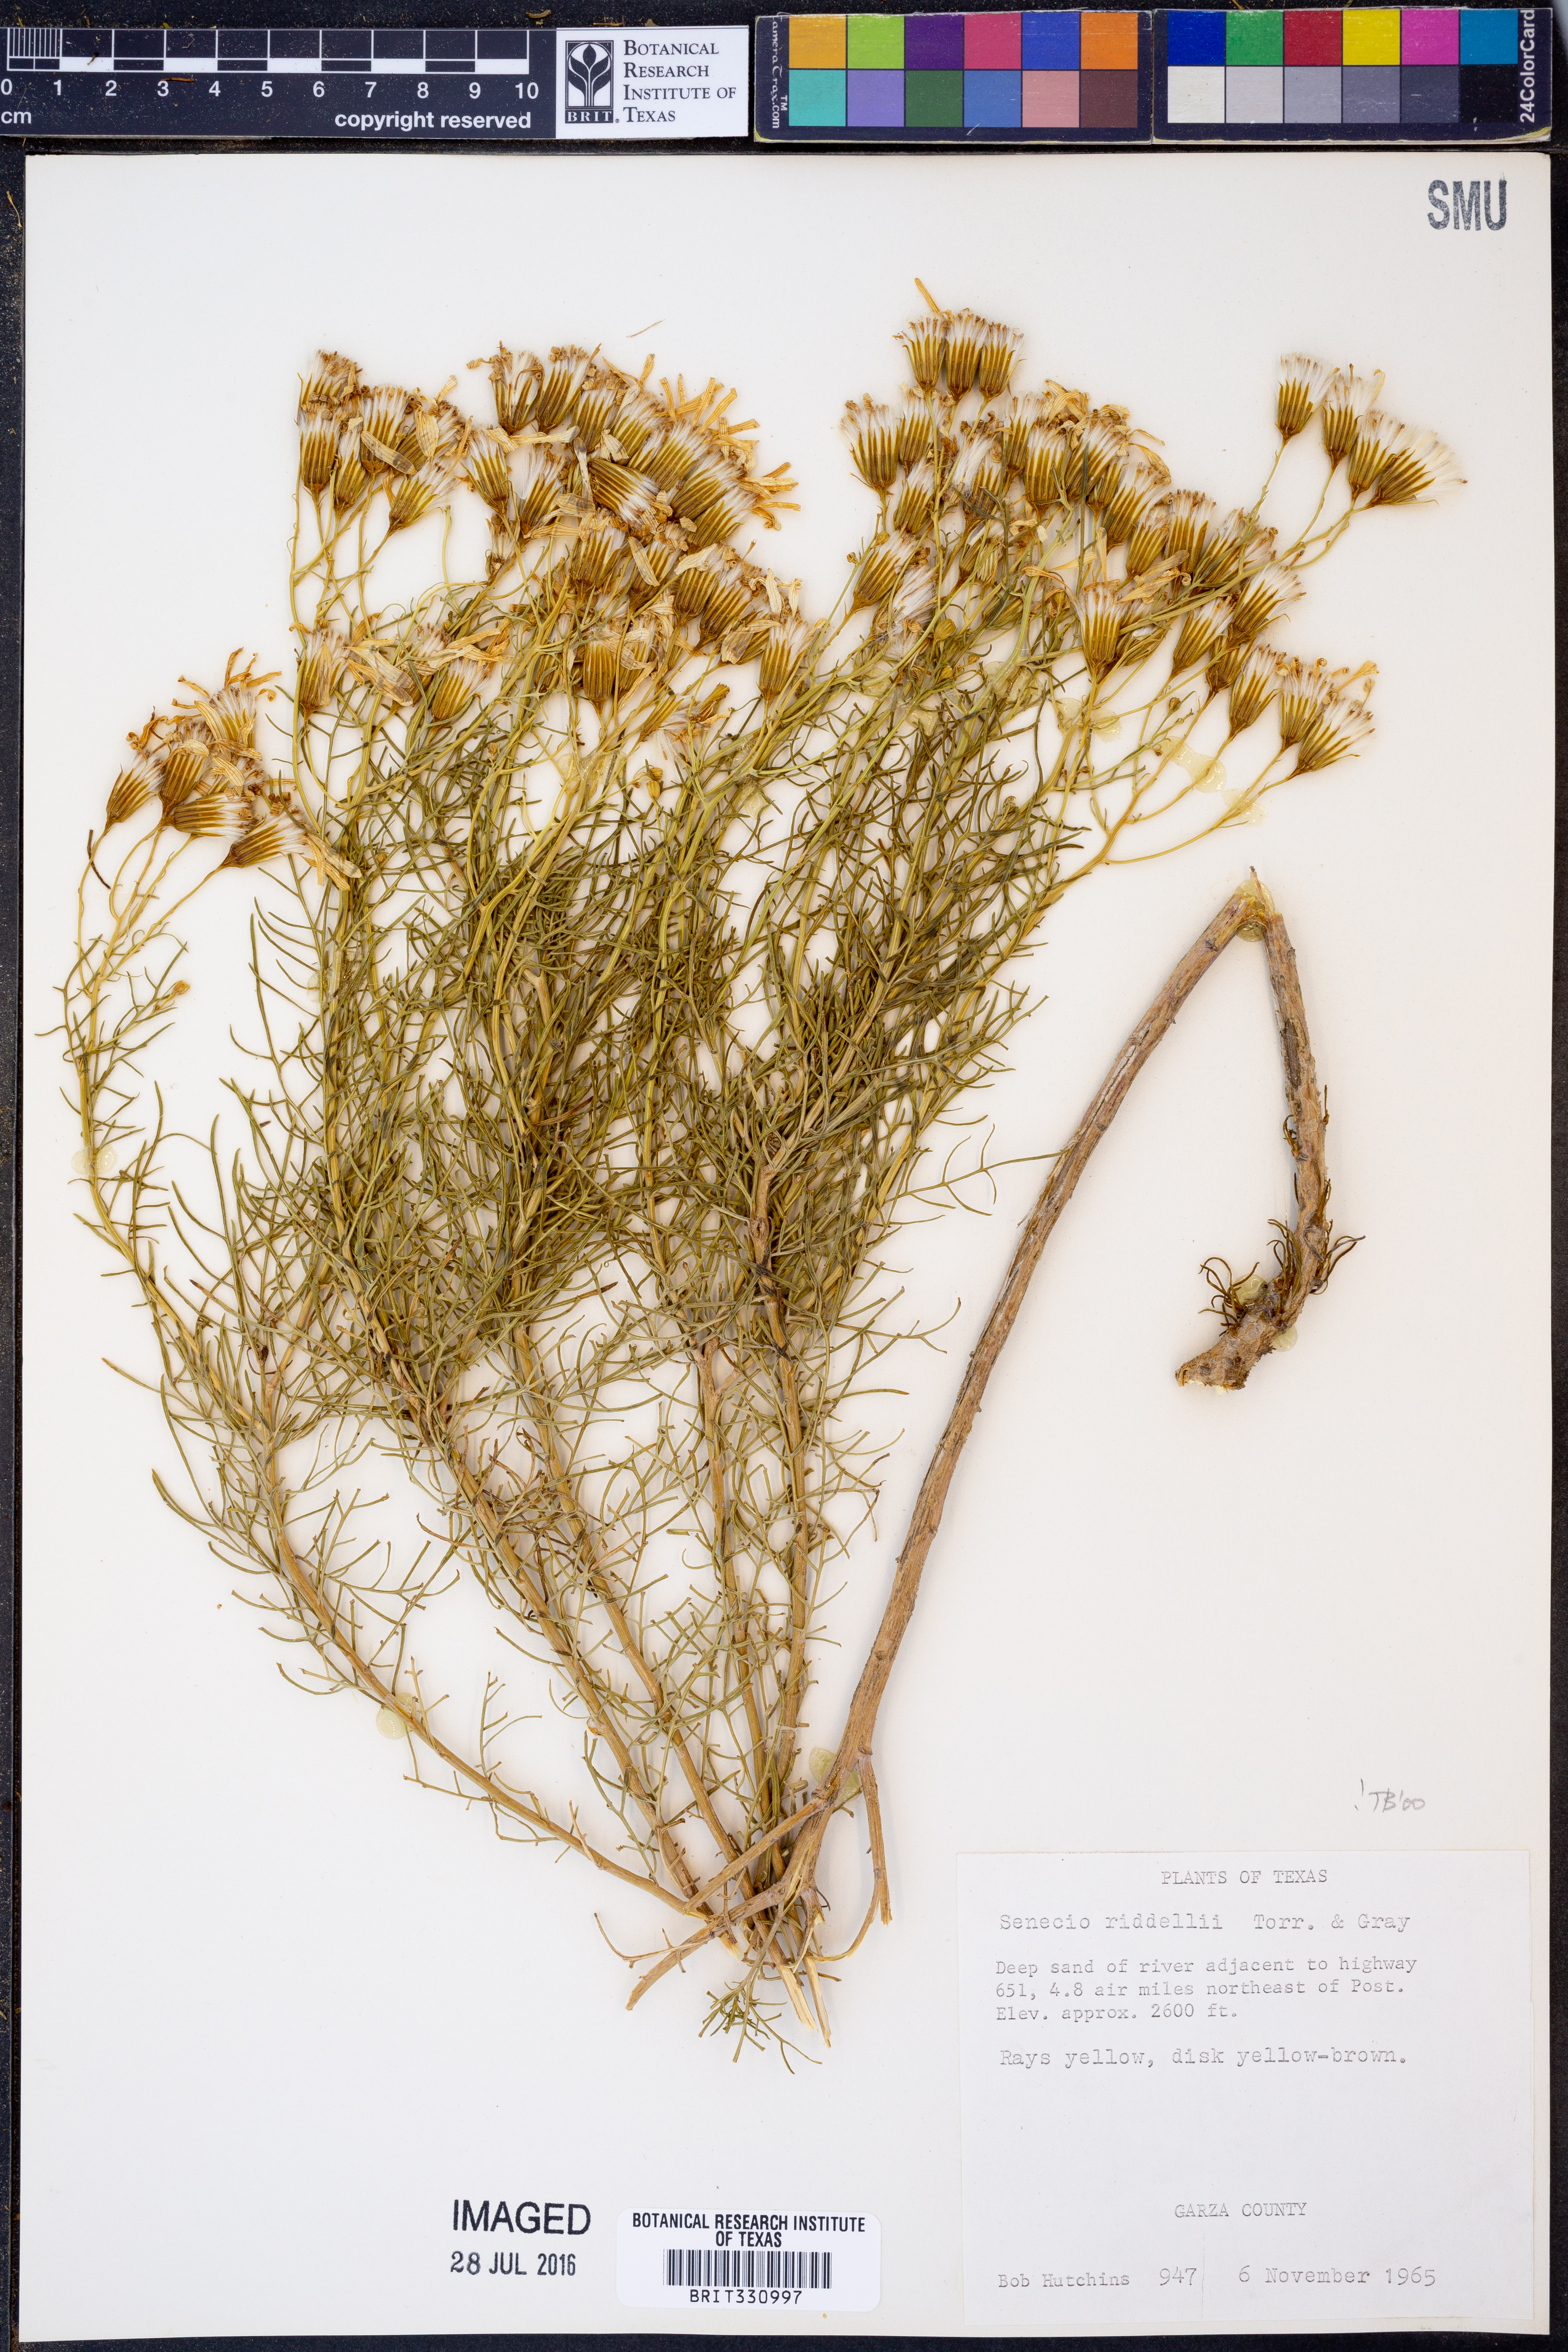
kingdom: Plantae
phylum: Tracheophyta
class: Magnoliopsida
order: Asterales
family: Asteraceae
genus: Senecio
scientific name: Senecio riddellii
